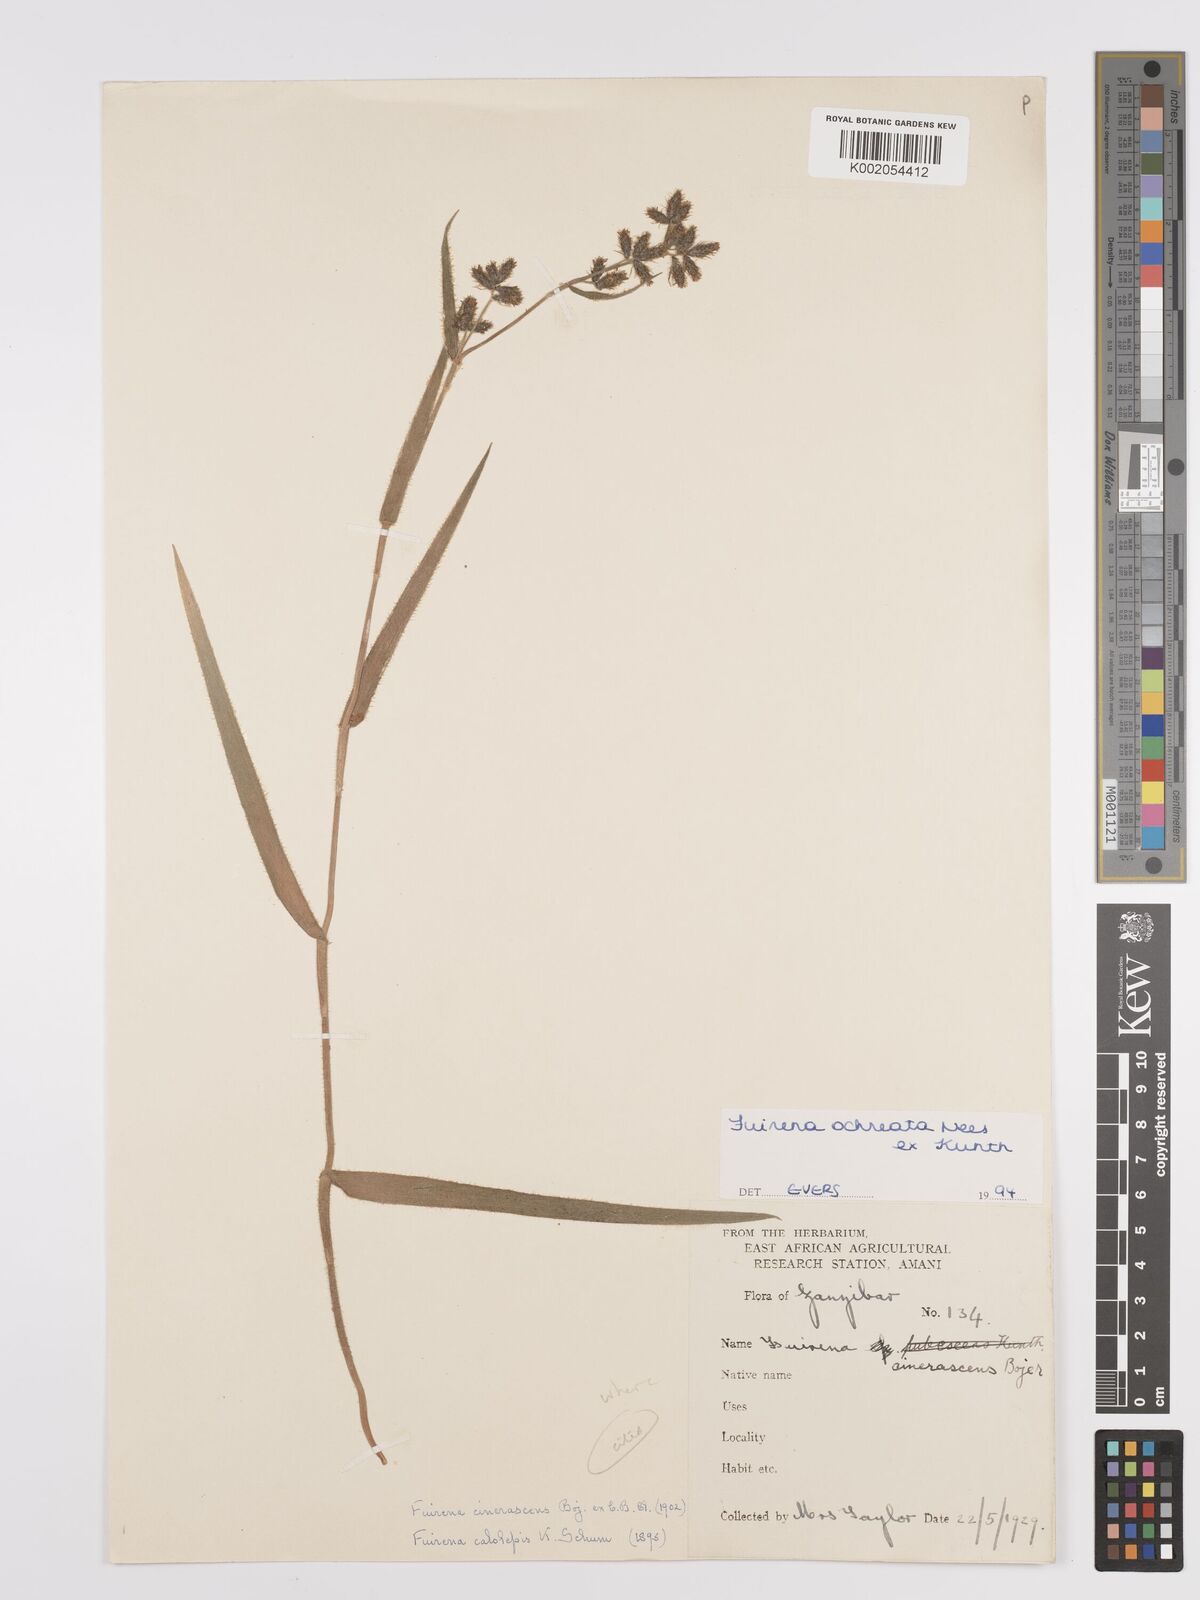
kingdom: Plantae
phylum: Tracheophyta
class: Liliopsida
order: Poales
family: Cyperaceae
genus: Fuirena
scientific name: Fuirena ochreata
